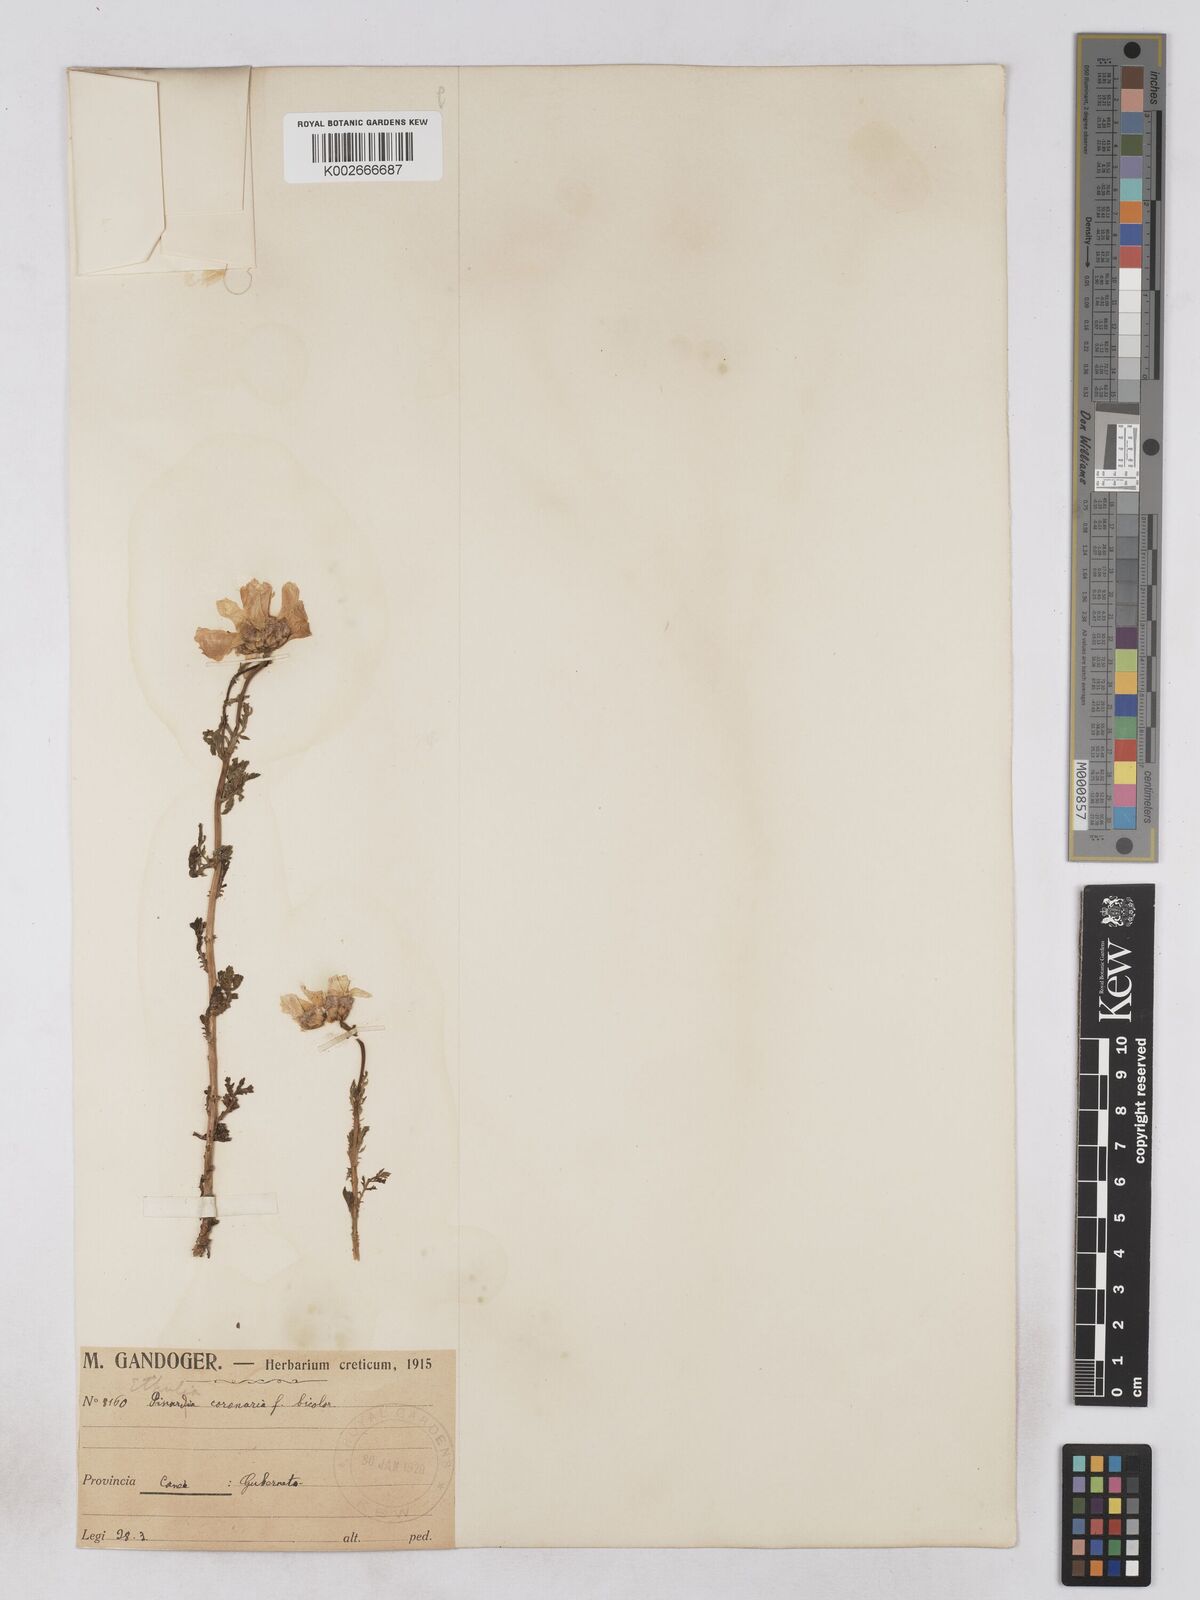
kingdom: Plantae
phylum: Tracheophyta
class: Magnoliopsida
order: Asterales
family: Asteraceae
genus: Glebionis
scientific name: Glebionis coronaria
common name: Crowndaisy
